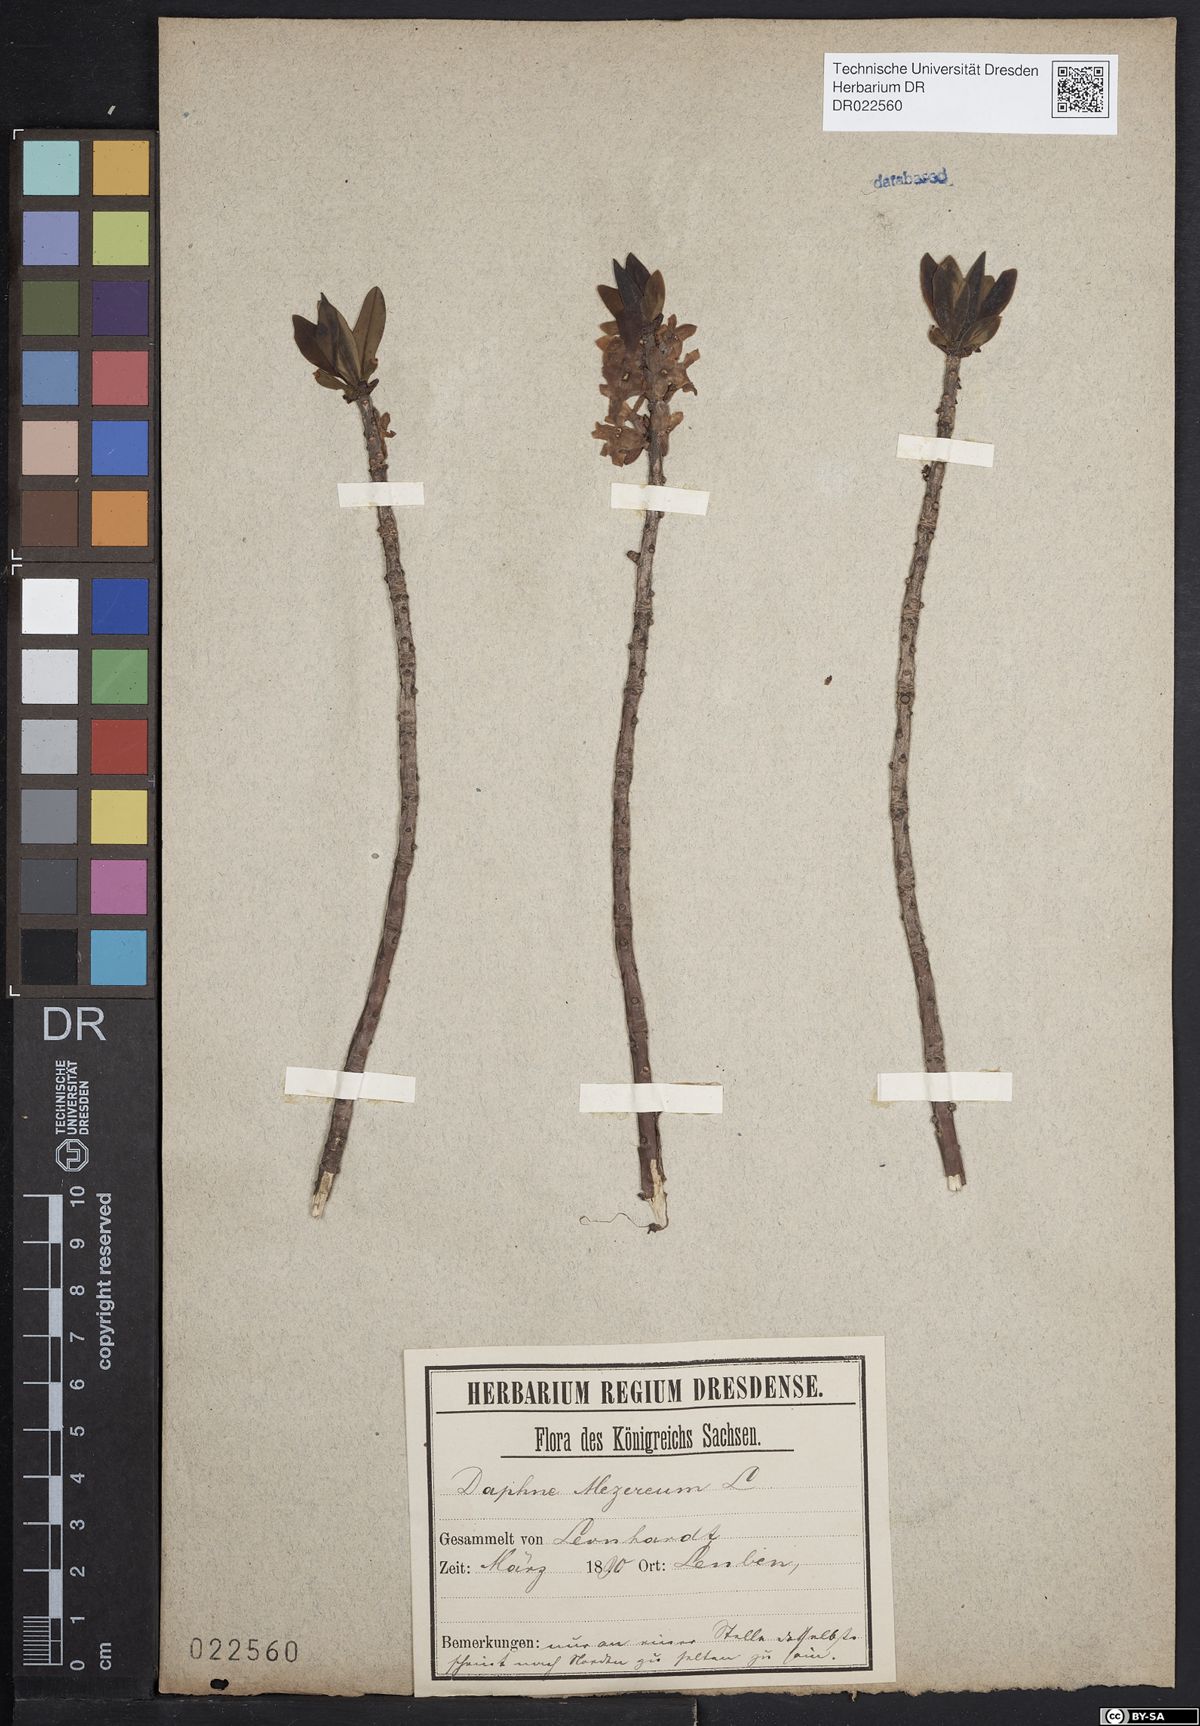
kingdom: Plantae
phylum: Tracheophyta
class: Magnoliopsida
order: Malvales
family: Thymelaeaceae
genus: Daphne
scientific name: Daphne mezereum
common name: Mezereon
